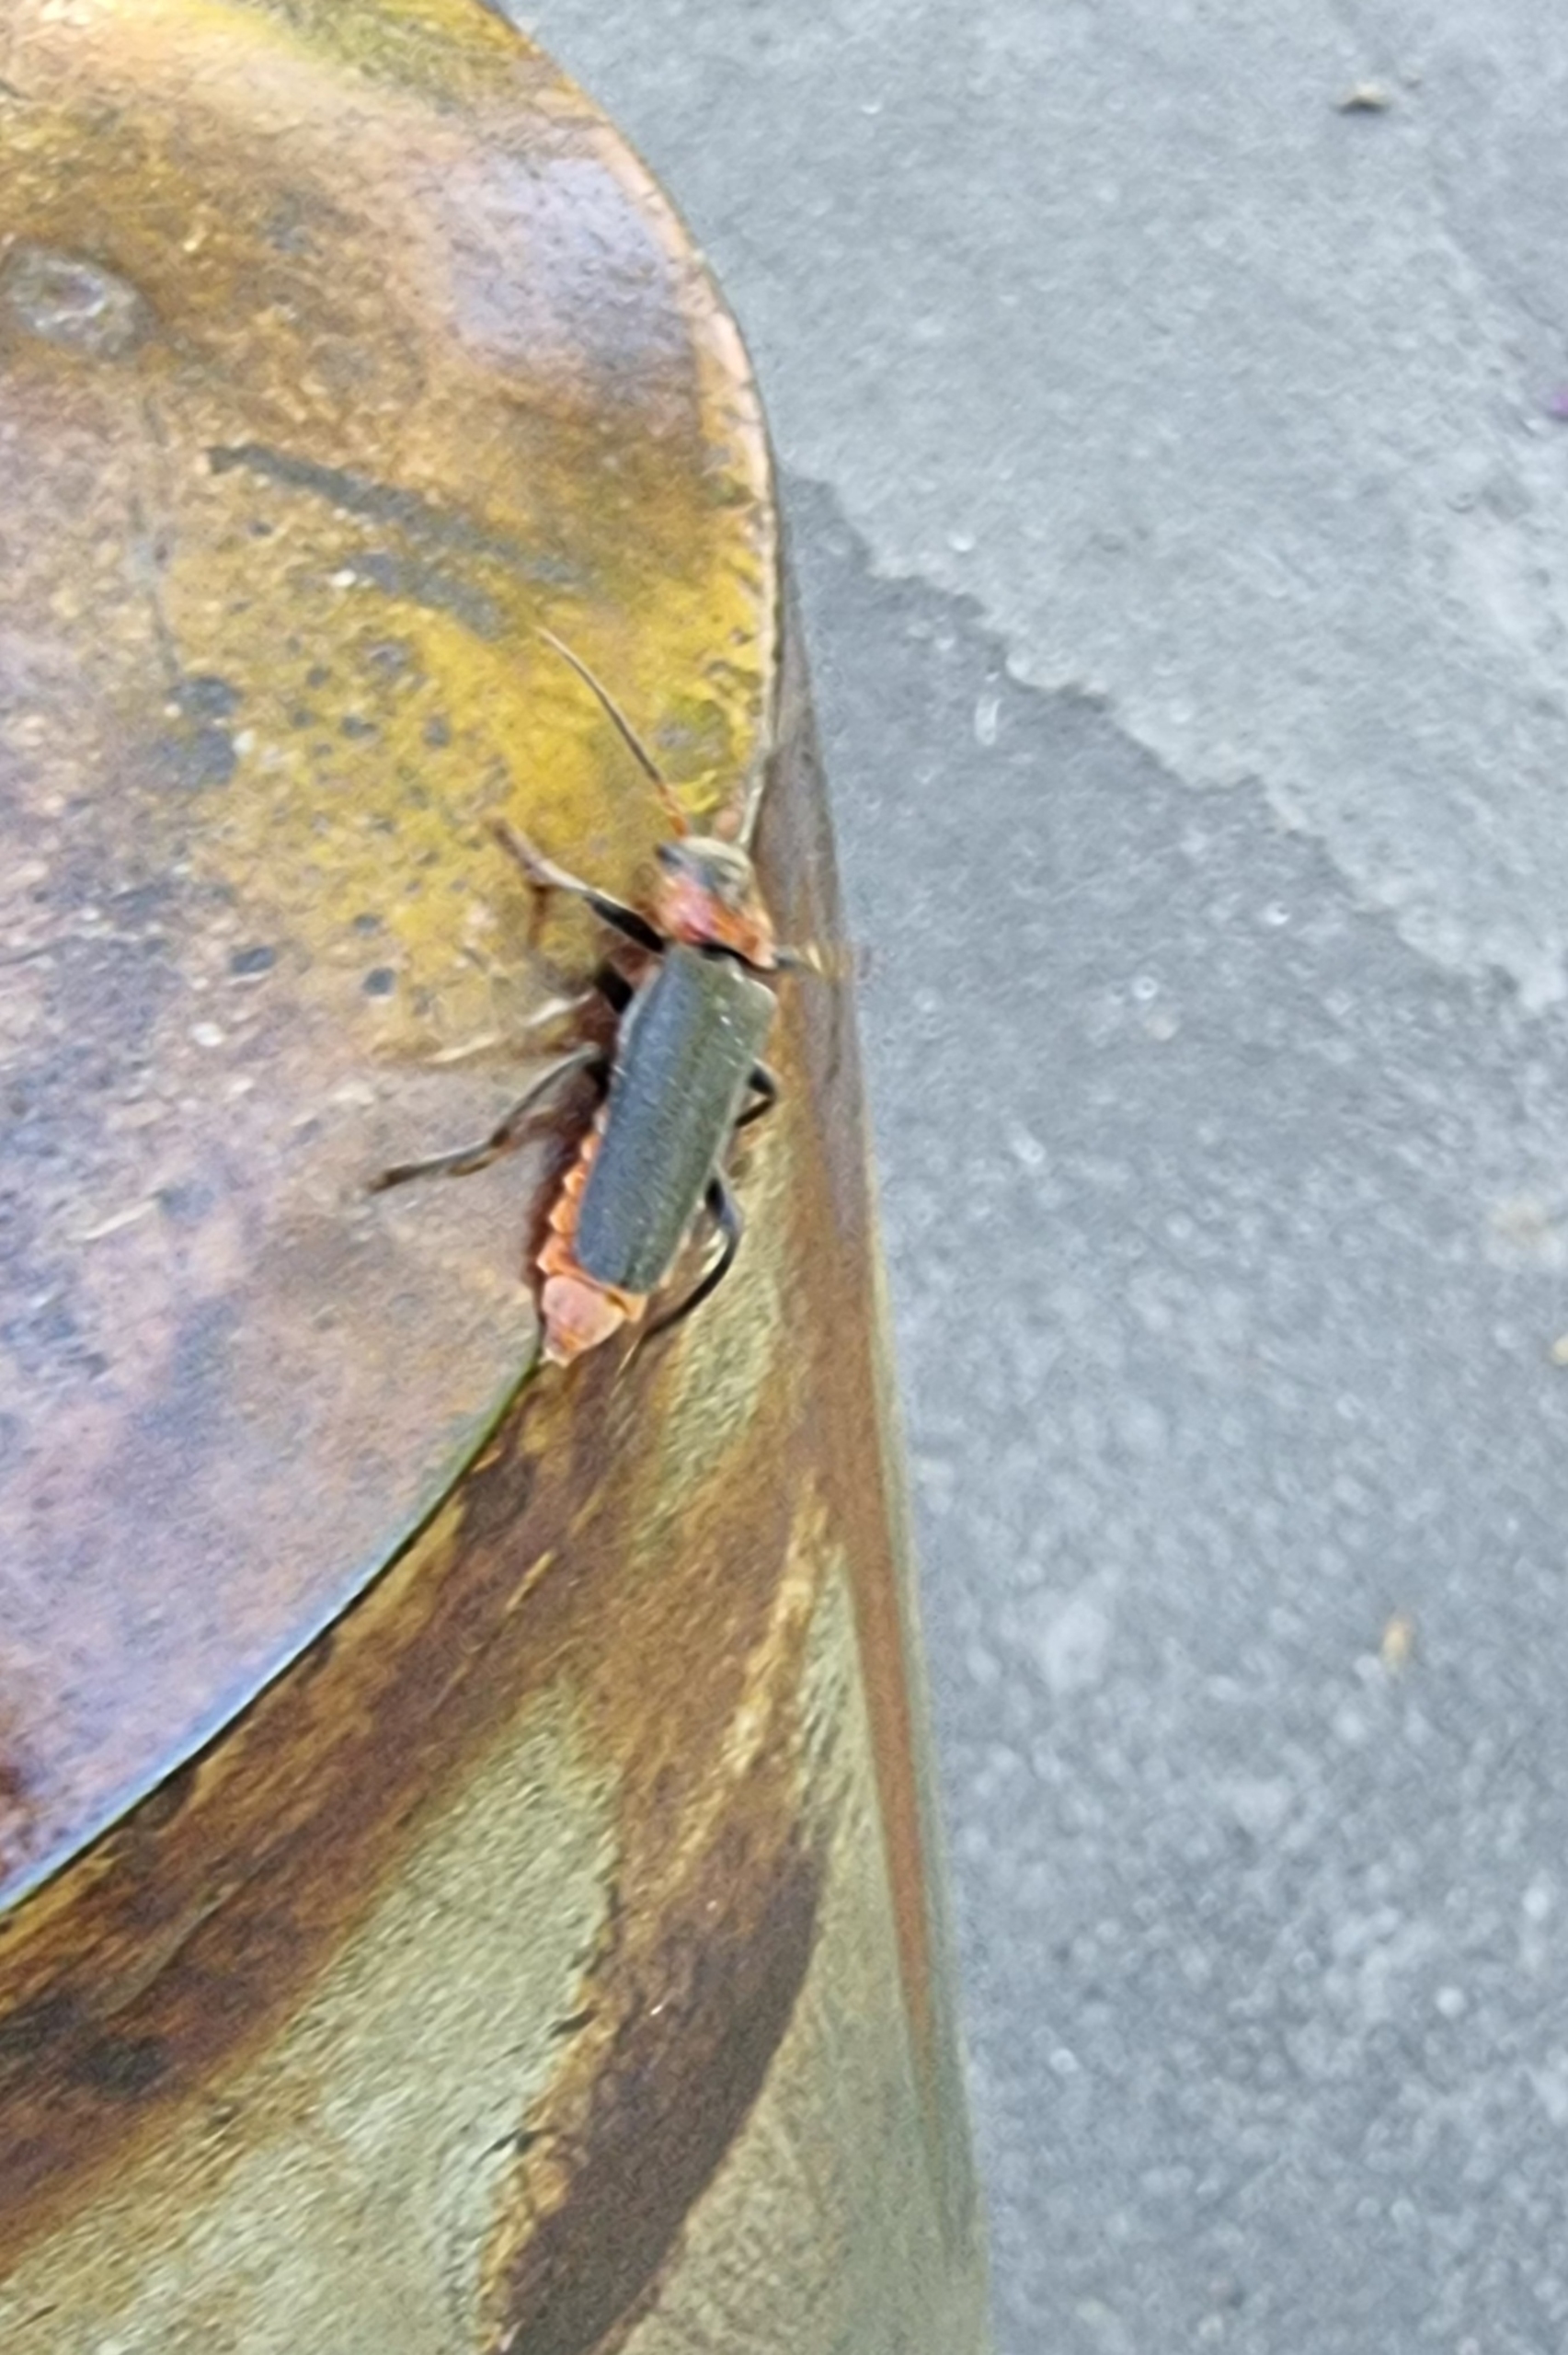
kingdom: Animalia
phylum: Arthropoda
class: Insecta
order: Coleoptera
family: Cantharidae
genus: Cantharis
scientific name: Cantharis fusca
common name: Stor blødvinge
